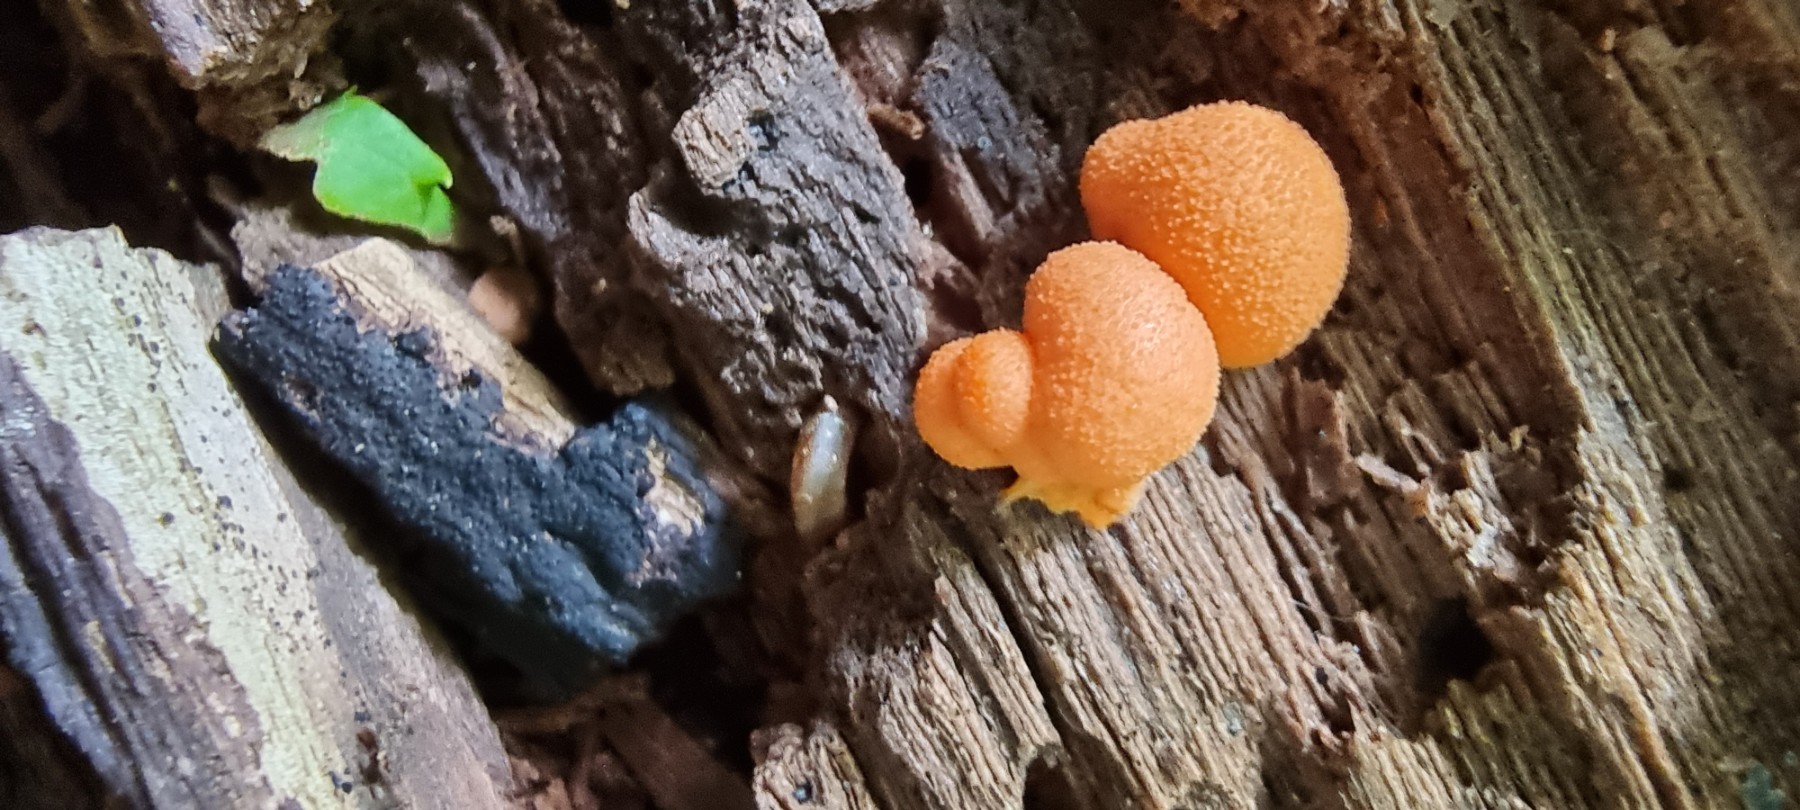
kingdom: Protozoa
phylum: Mycetozoa
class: Myxomycetes
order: Cribrariales
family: Tubiferaceae
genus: Lycogala
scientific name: Lycogala epidendrum
